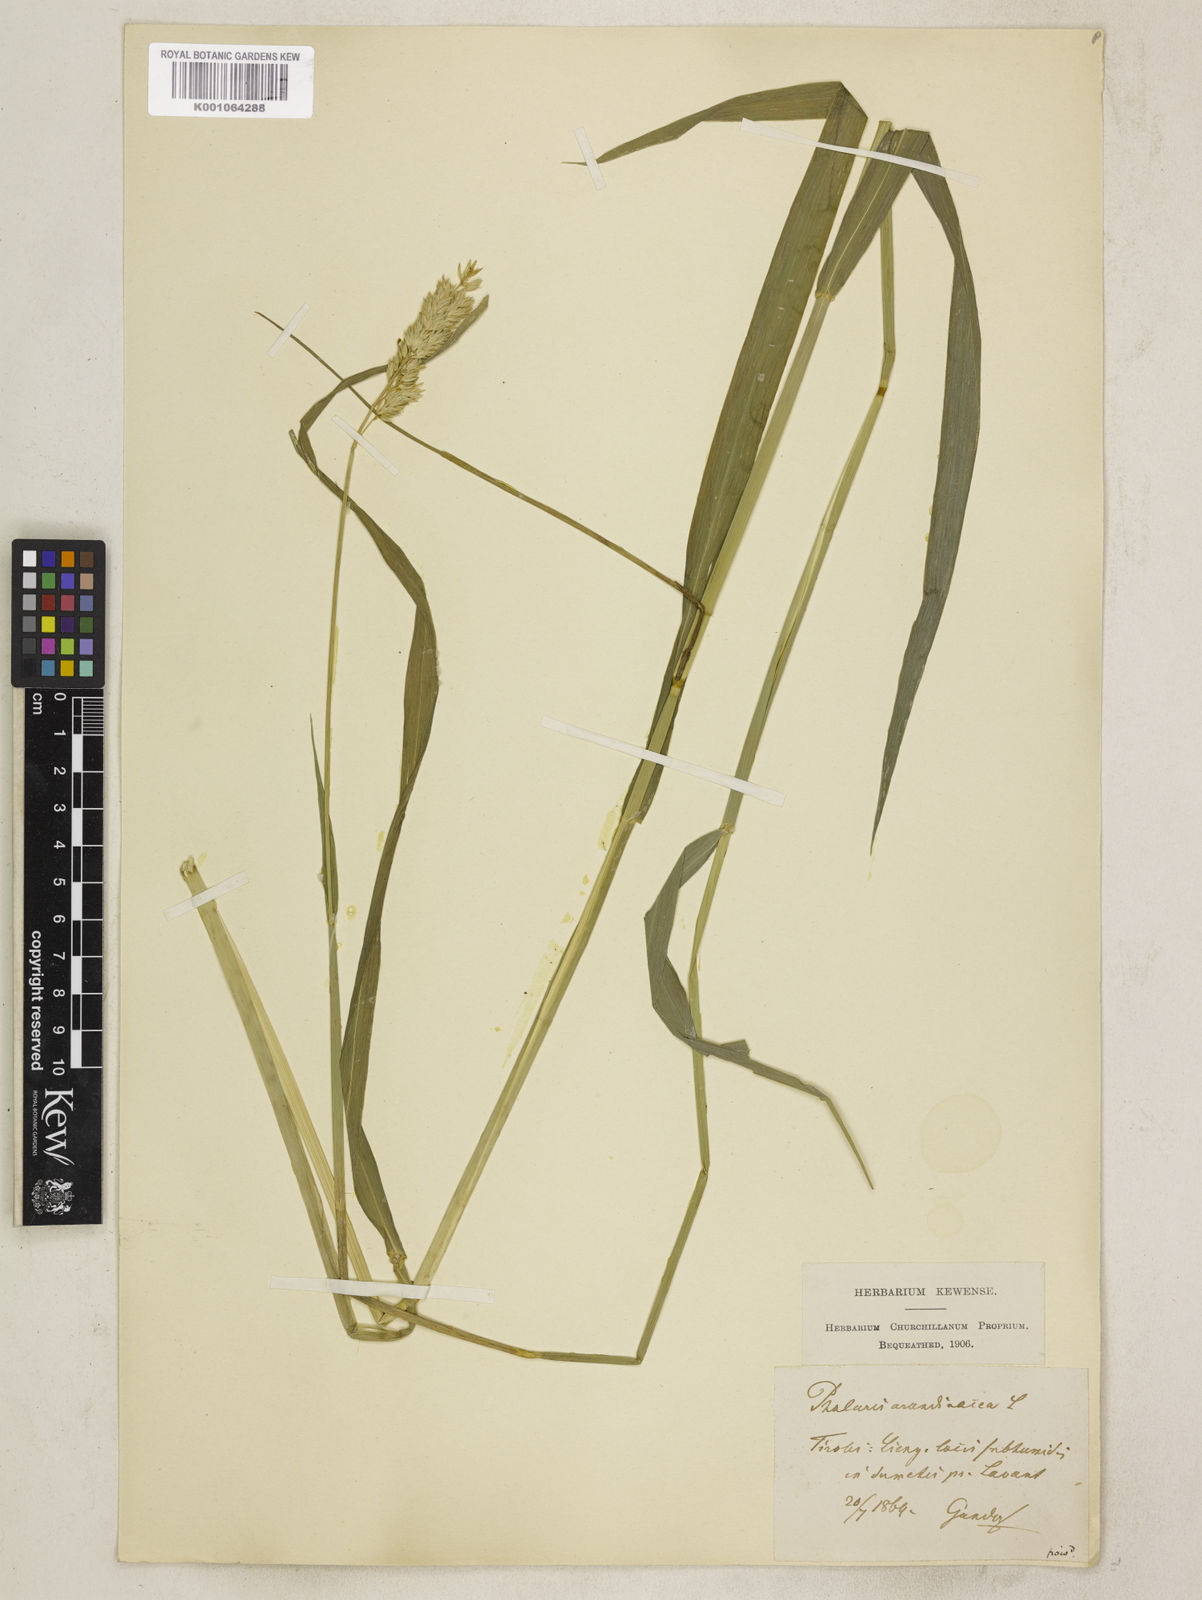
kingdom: Plantae
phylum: Tracheophyta
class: Liliopsida
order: Poales
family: Poaceae
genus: Phalaris
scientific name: Phalaris arundinacea
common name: Reed canary-grass
